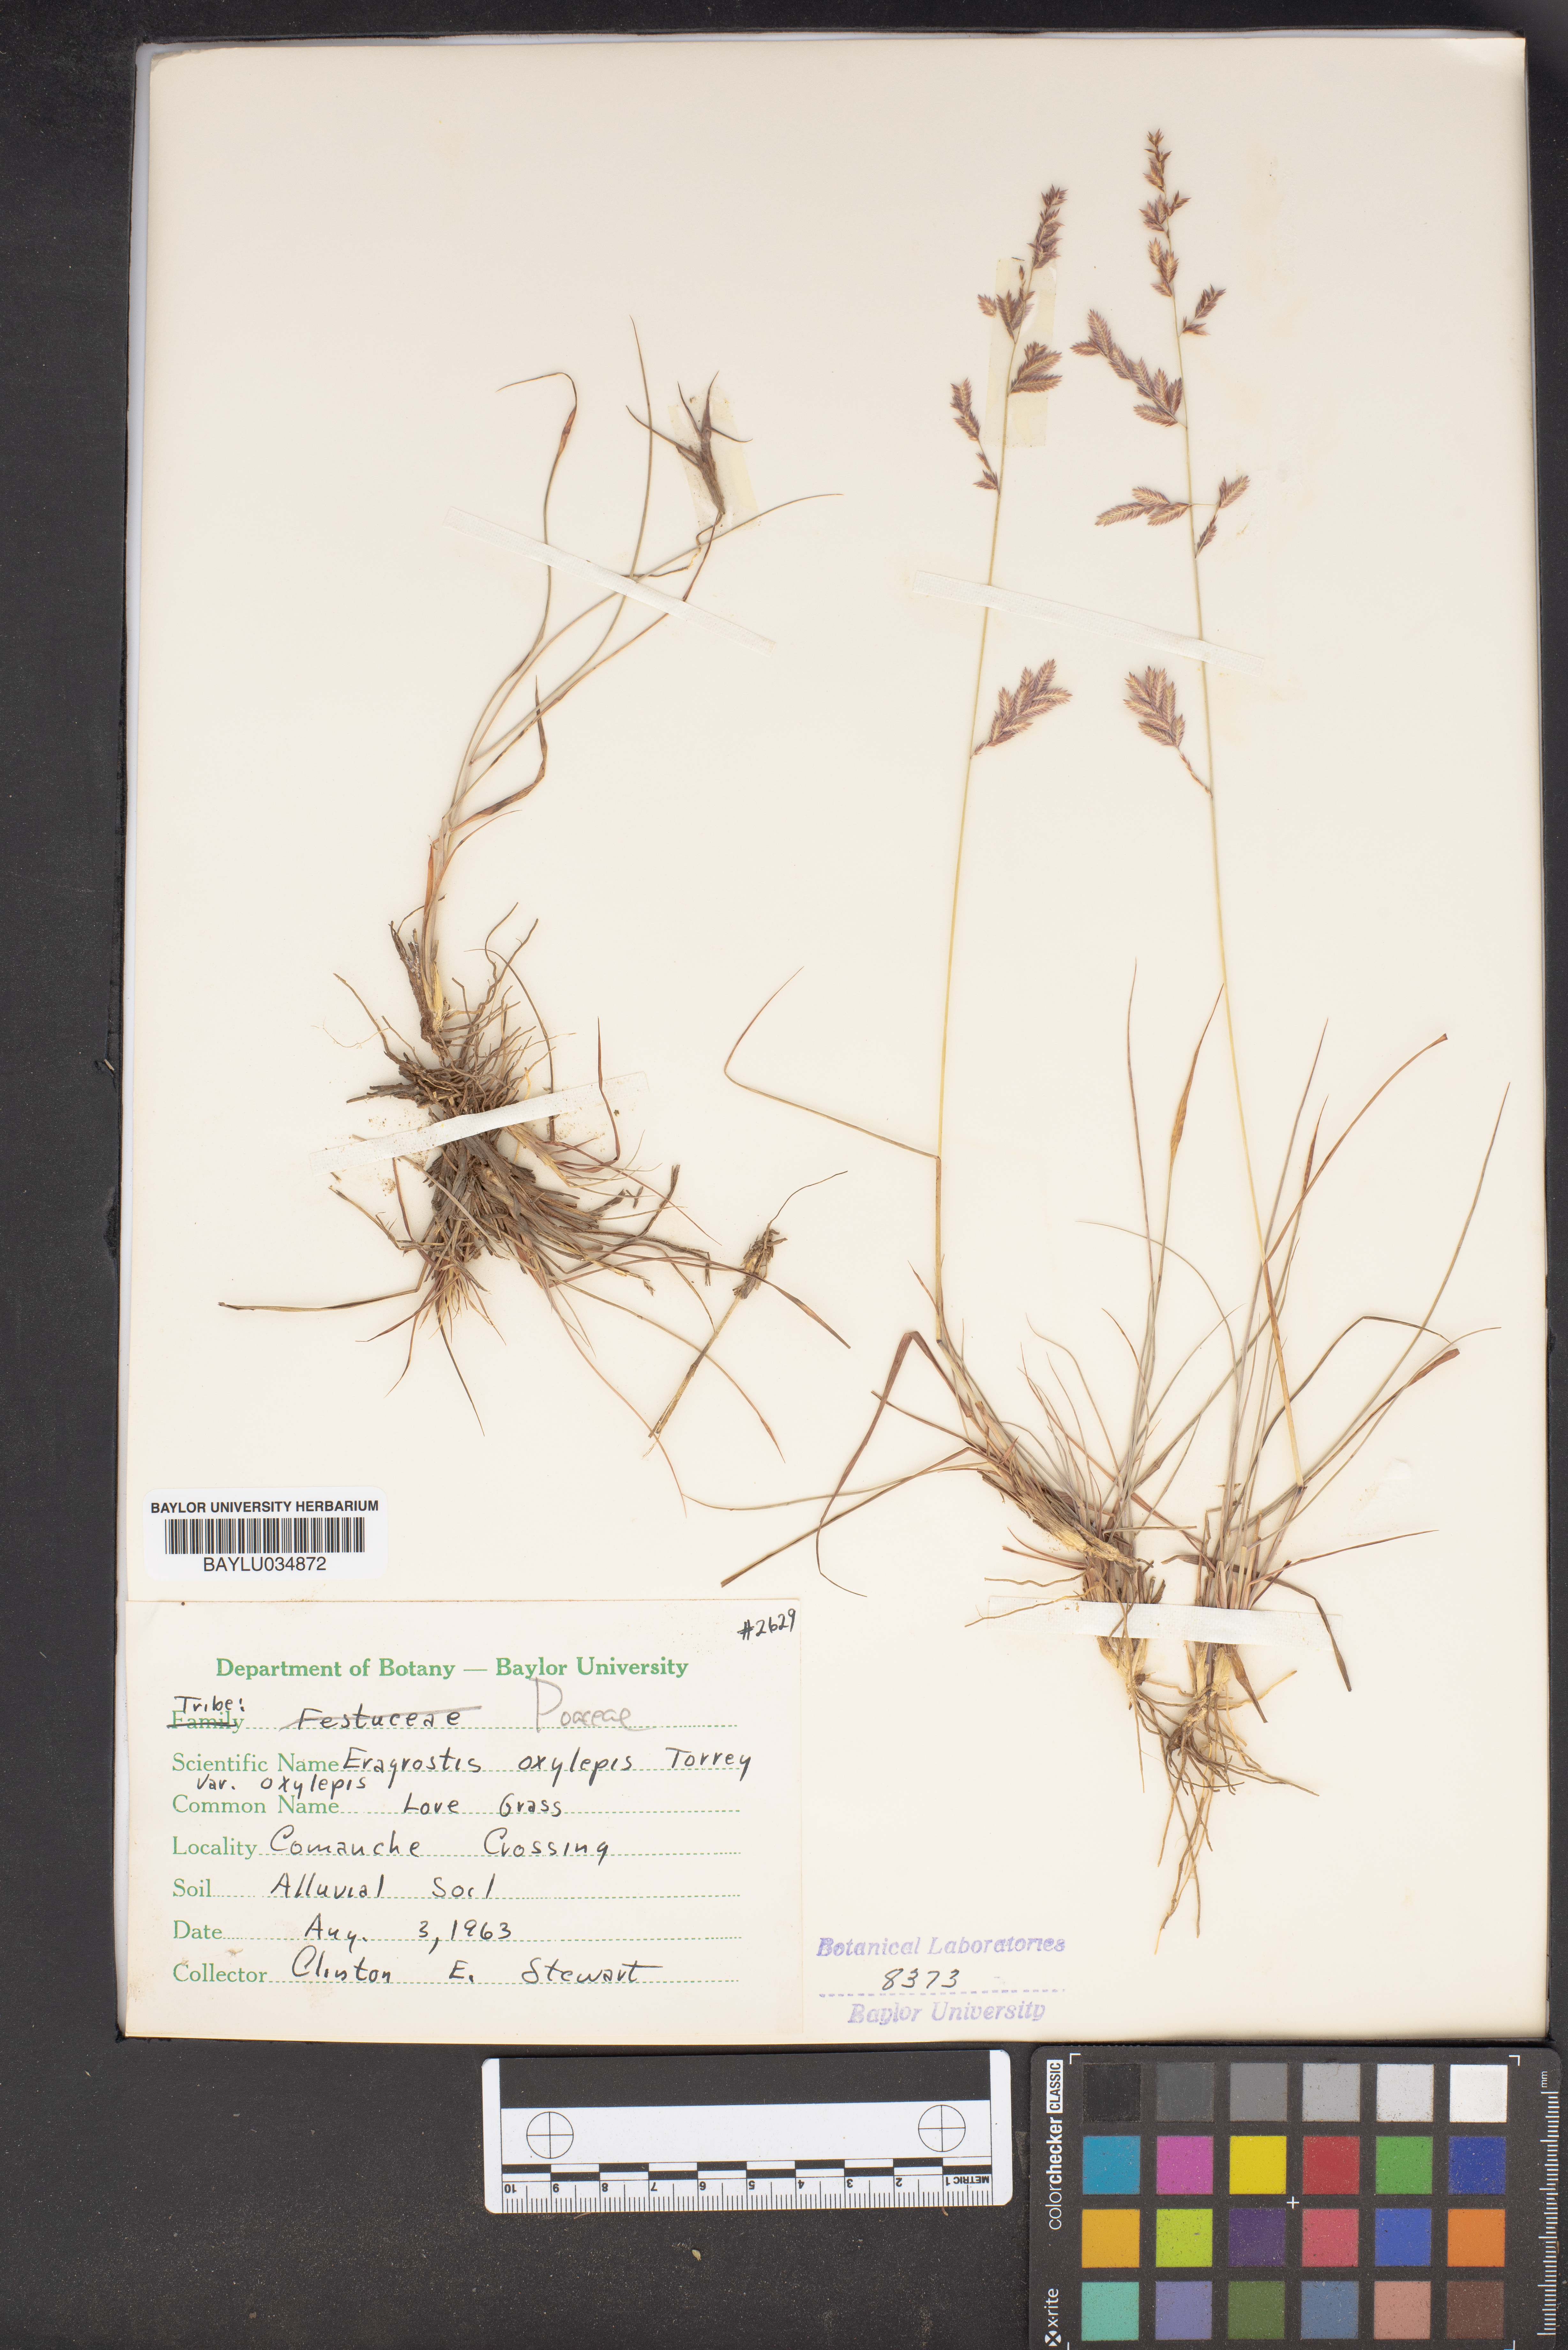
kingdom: Plantae
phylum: Tracheophyta
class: Liliopsida
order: Poales
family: Poaceae
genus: Eragrostis
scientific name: Eragrostis secundiflora
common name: Red love grass
